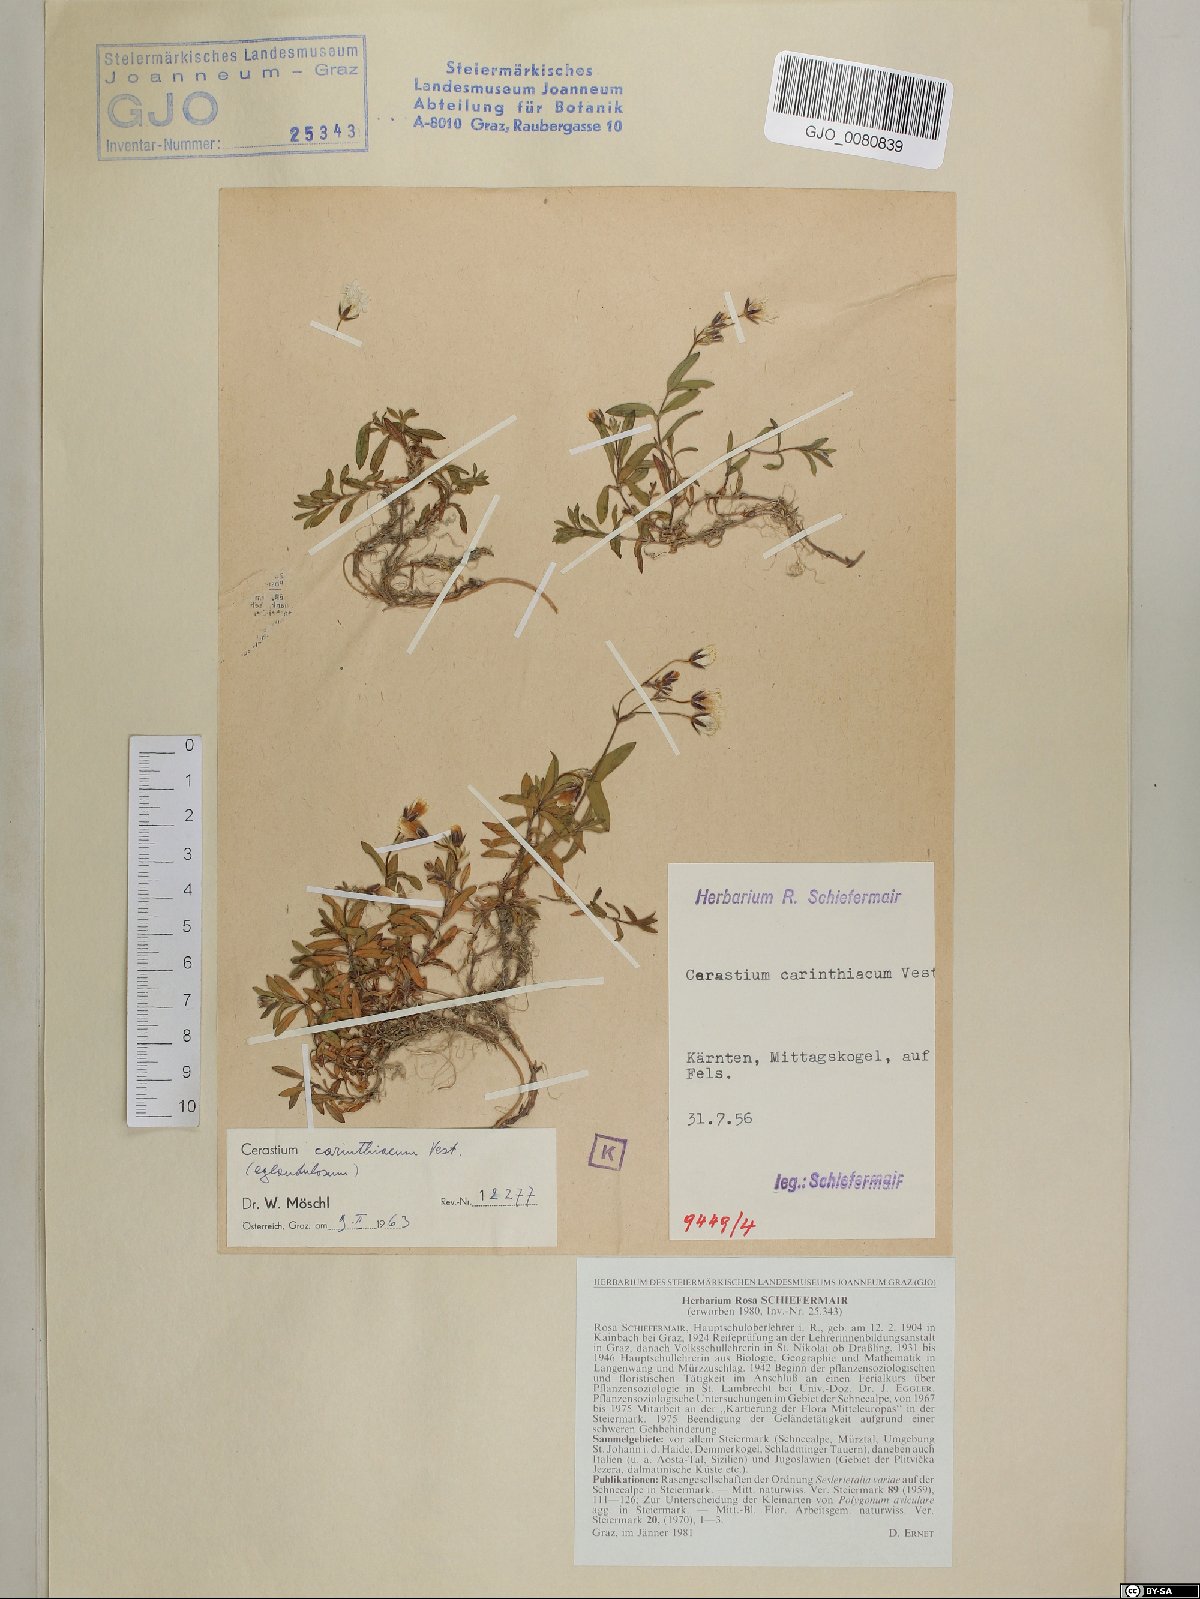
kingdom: Plantae
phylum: Tracheophyta
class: Magnoliopsida
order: Caryophyllales
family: Caryophyllaceae
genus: Cerastium
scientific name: Cerastium carinthiacum
